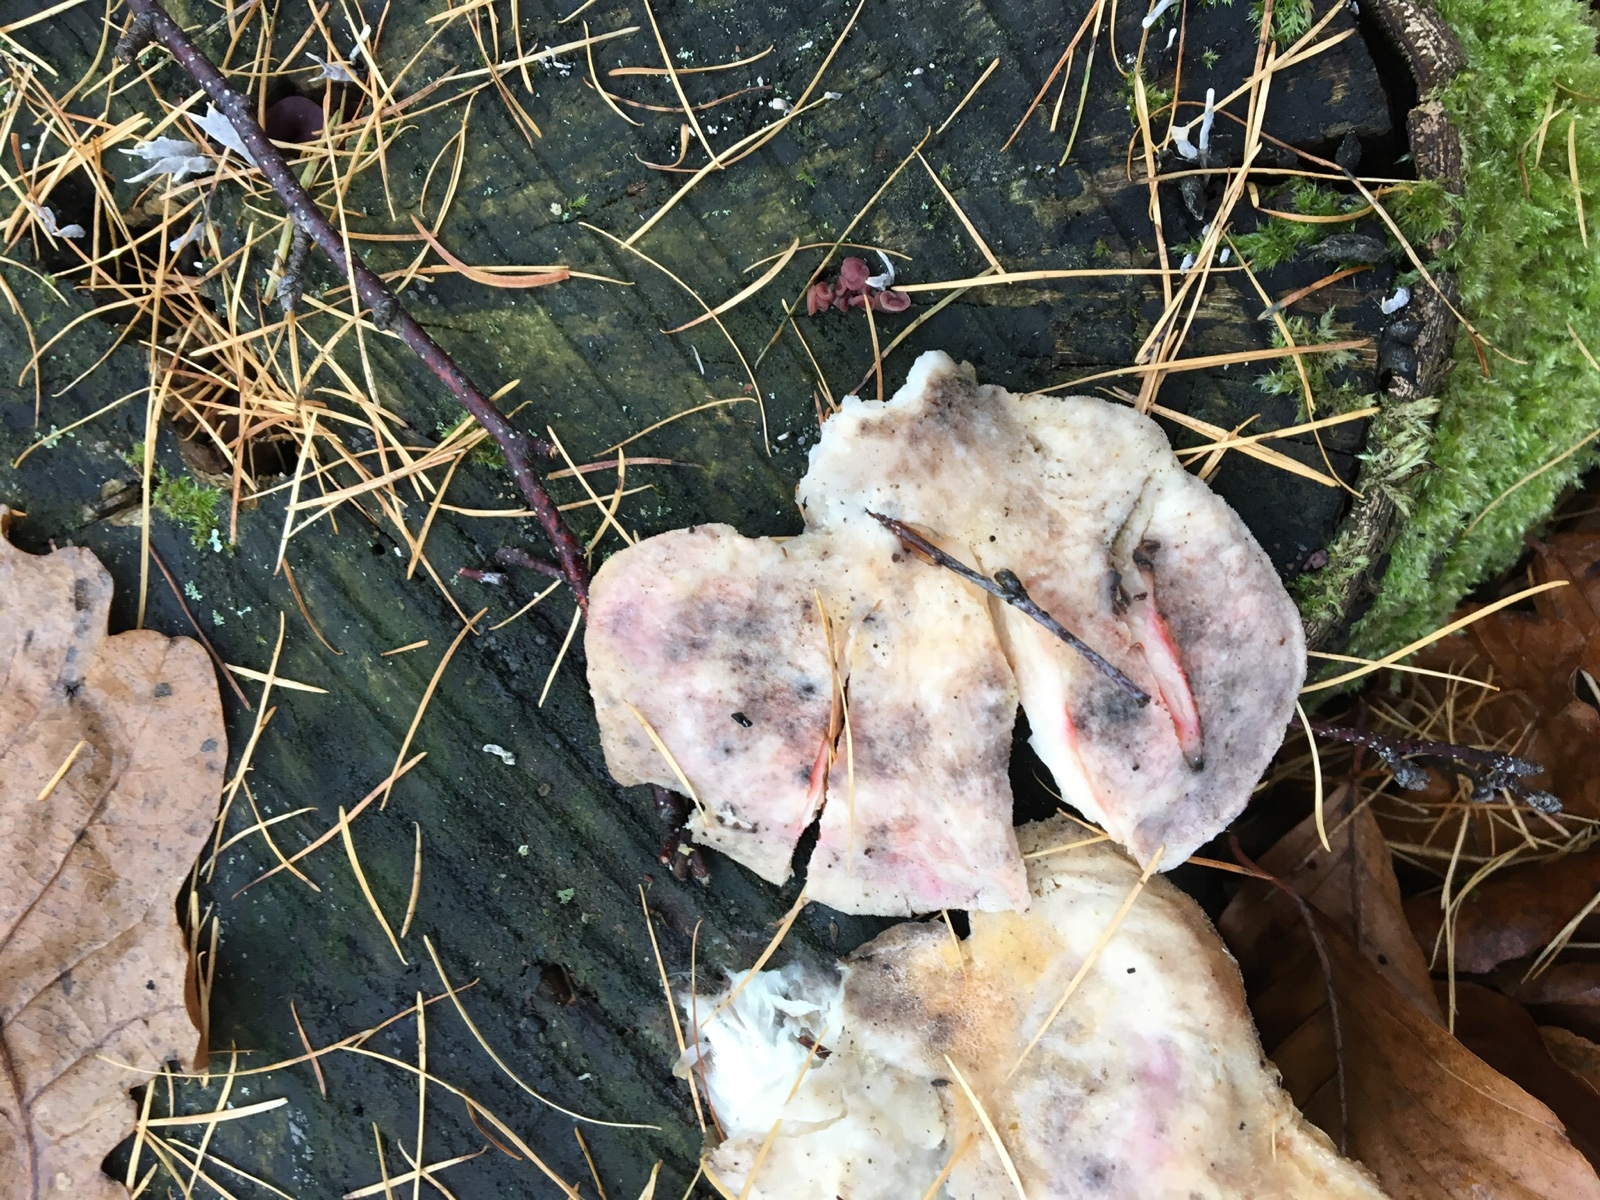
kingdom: Fungi
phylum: Basidiomycota
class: Agaricomycetes
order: Polyporales
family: Dacryobolaceae
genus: Postia
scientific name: Postia
